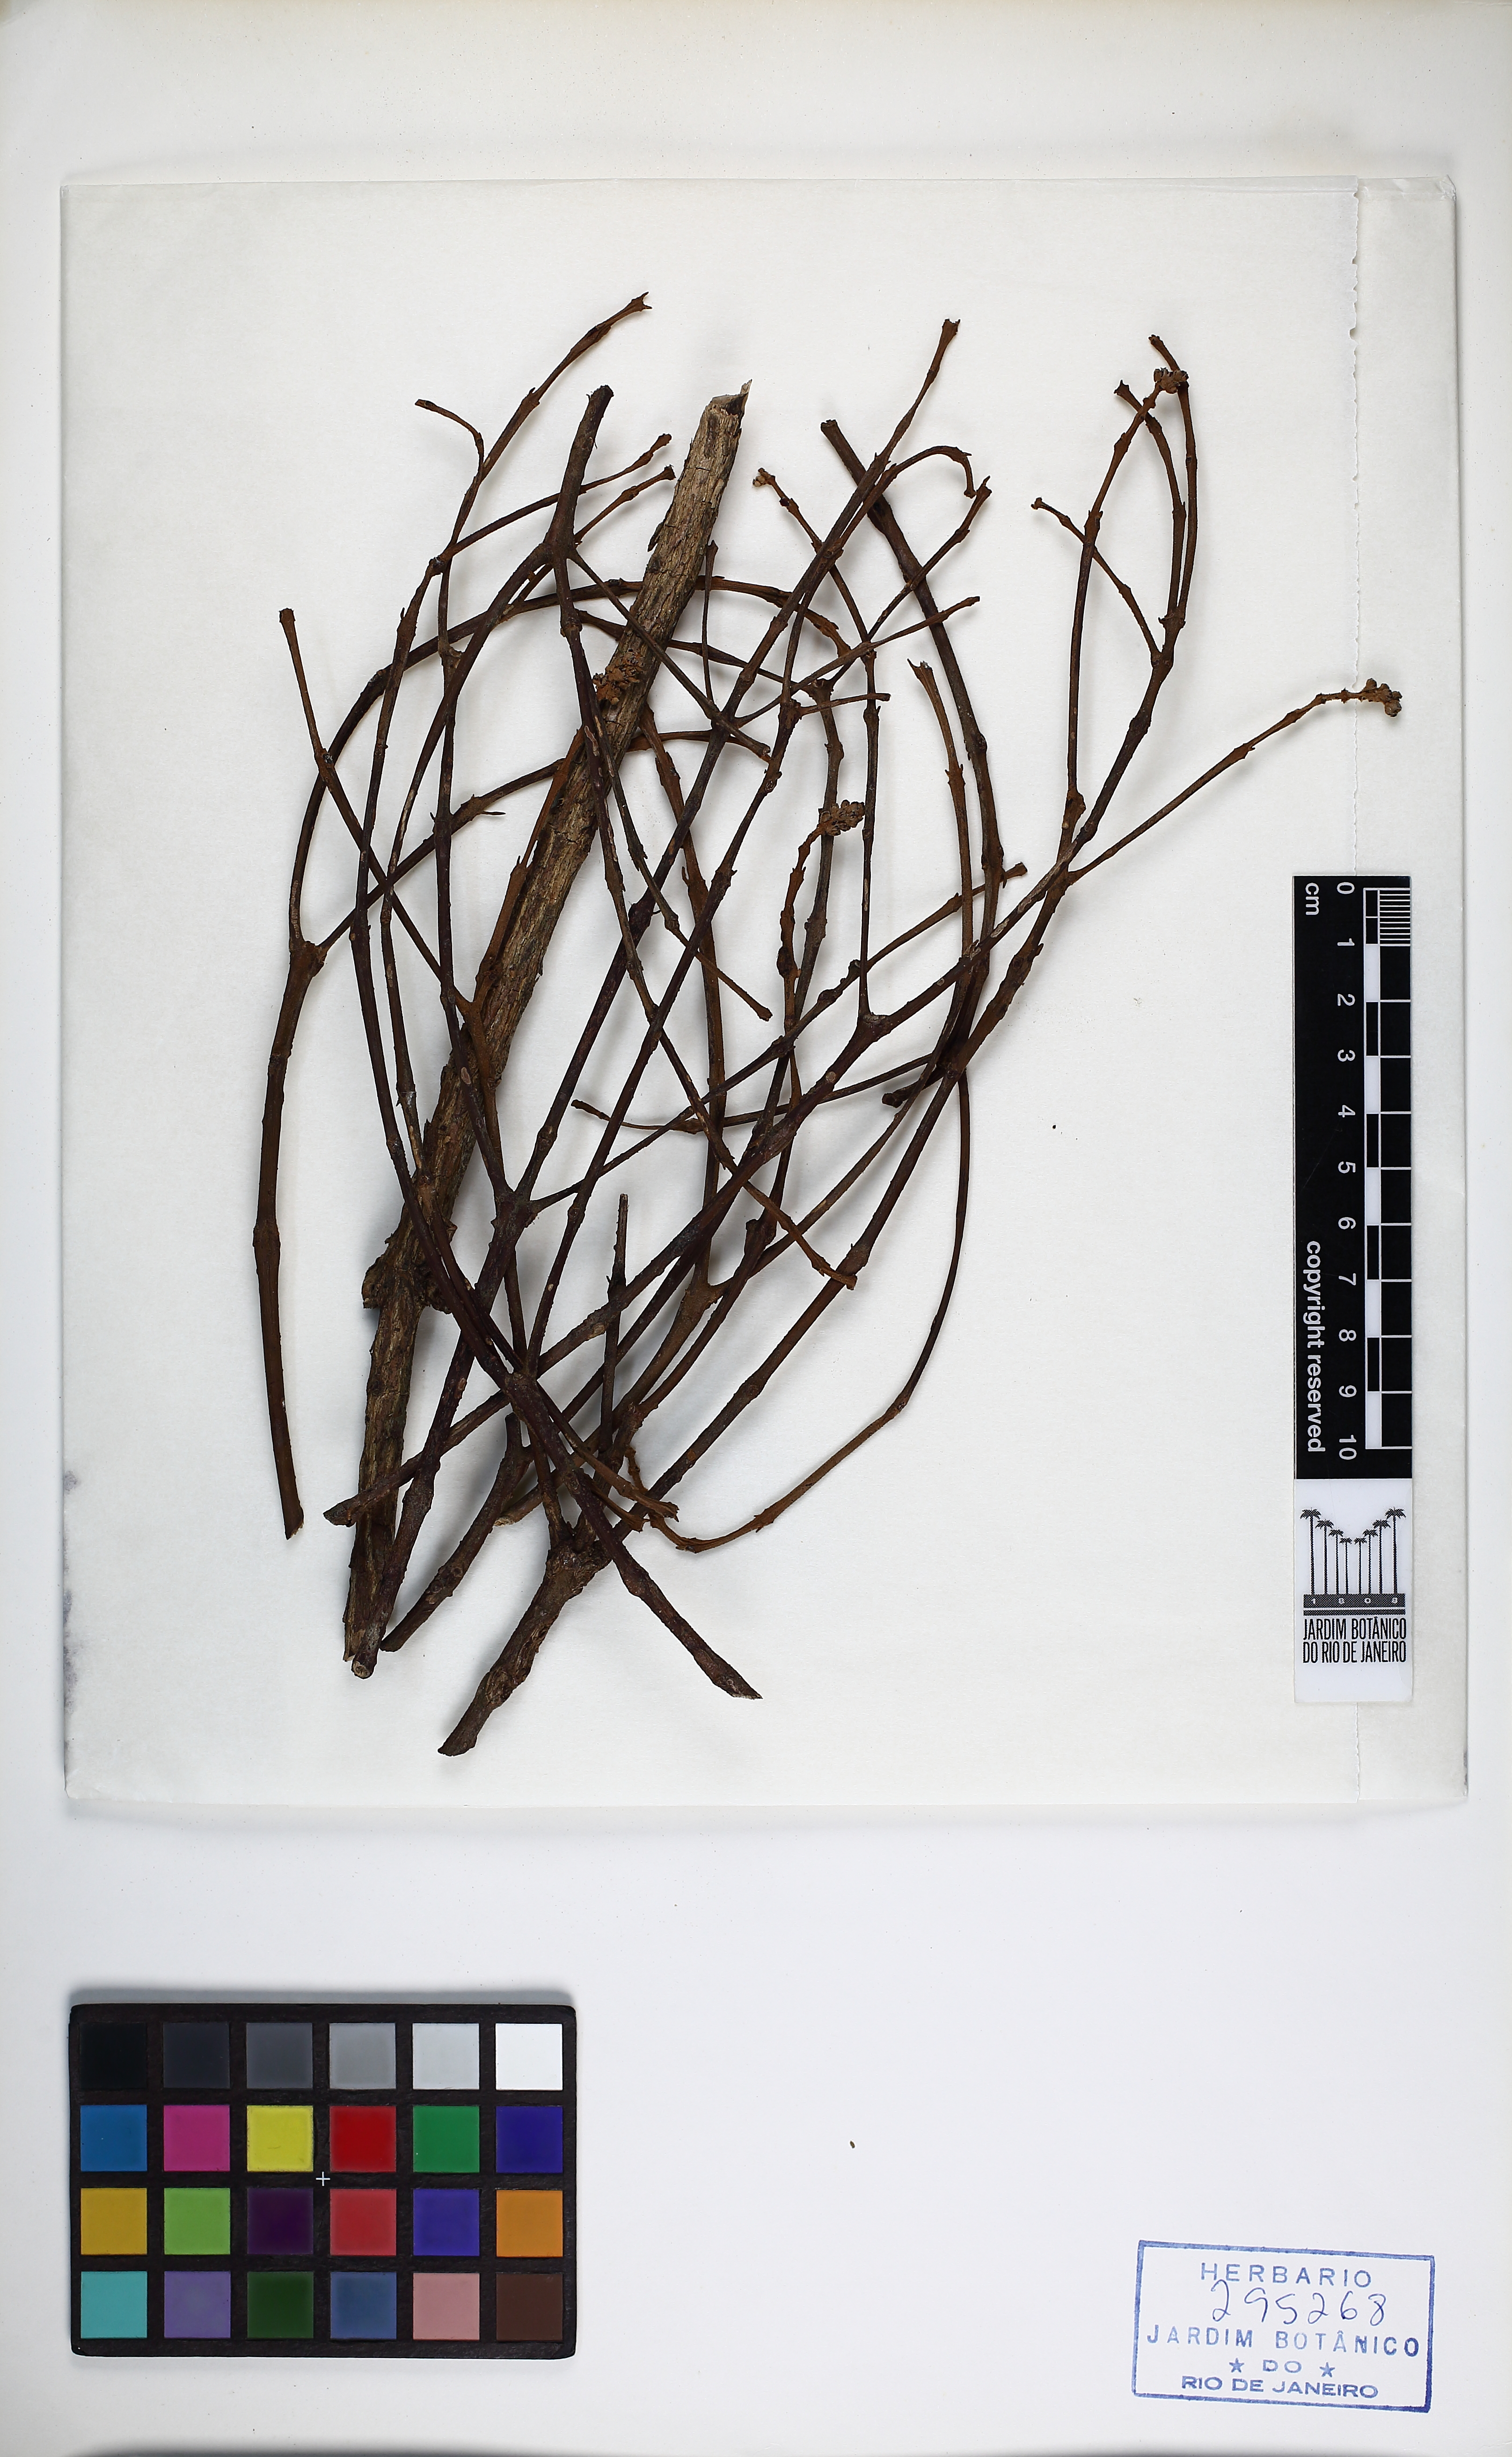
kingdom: Plantae
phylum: Tracheophyta
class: Magnoliopsida
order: Myrtales
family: Melastomataceae
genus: Miconia
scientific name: Miconia valtheri
